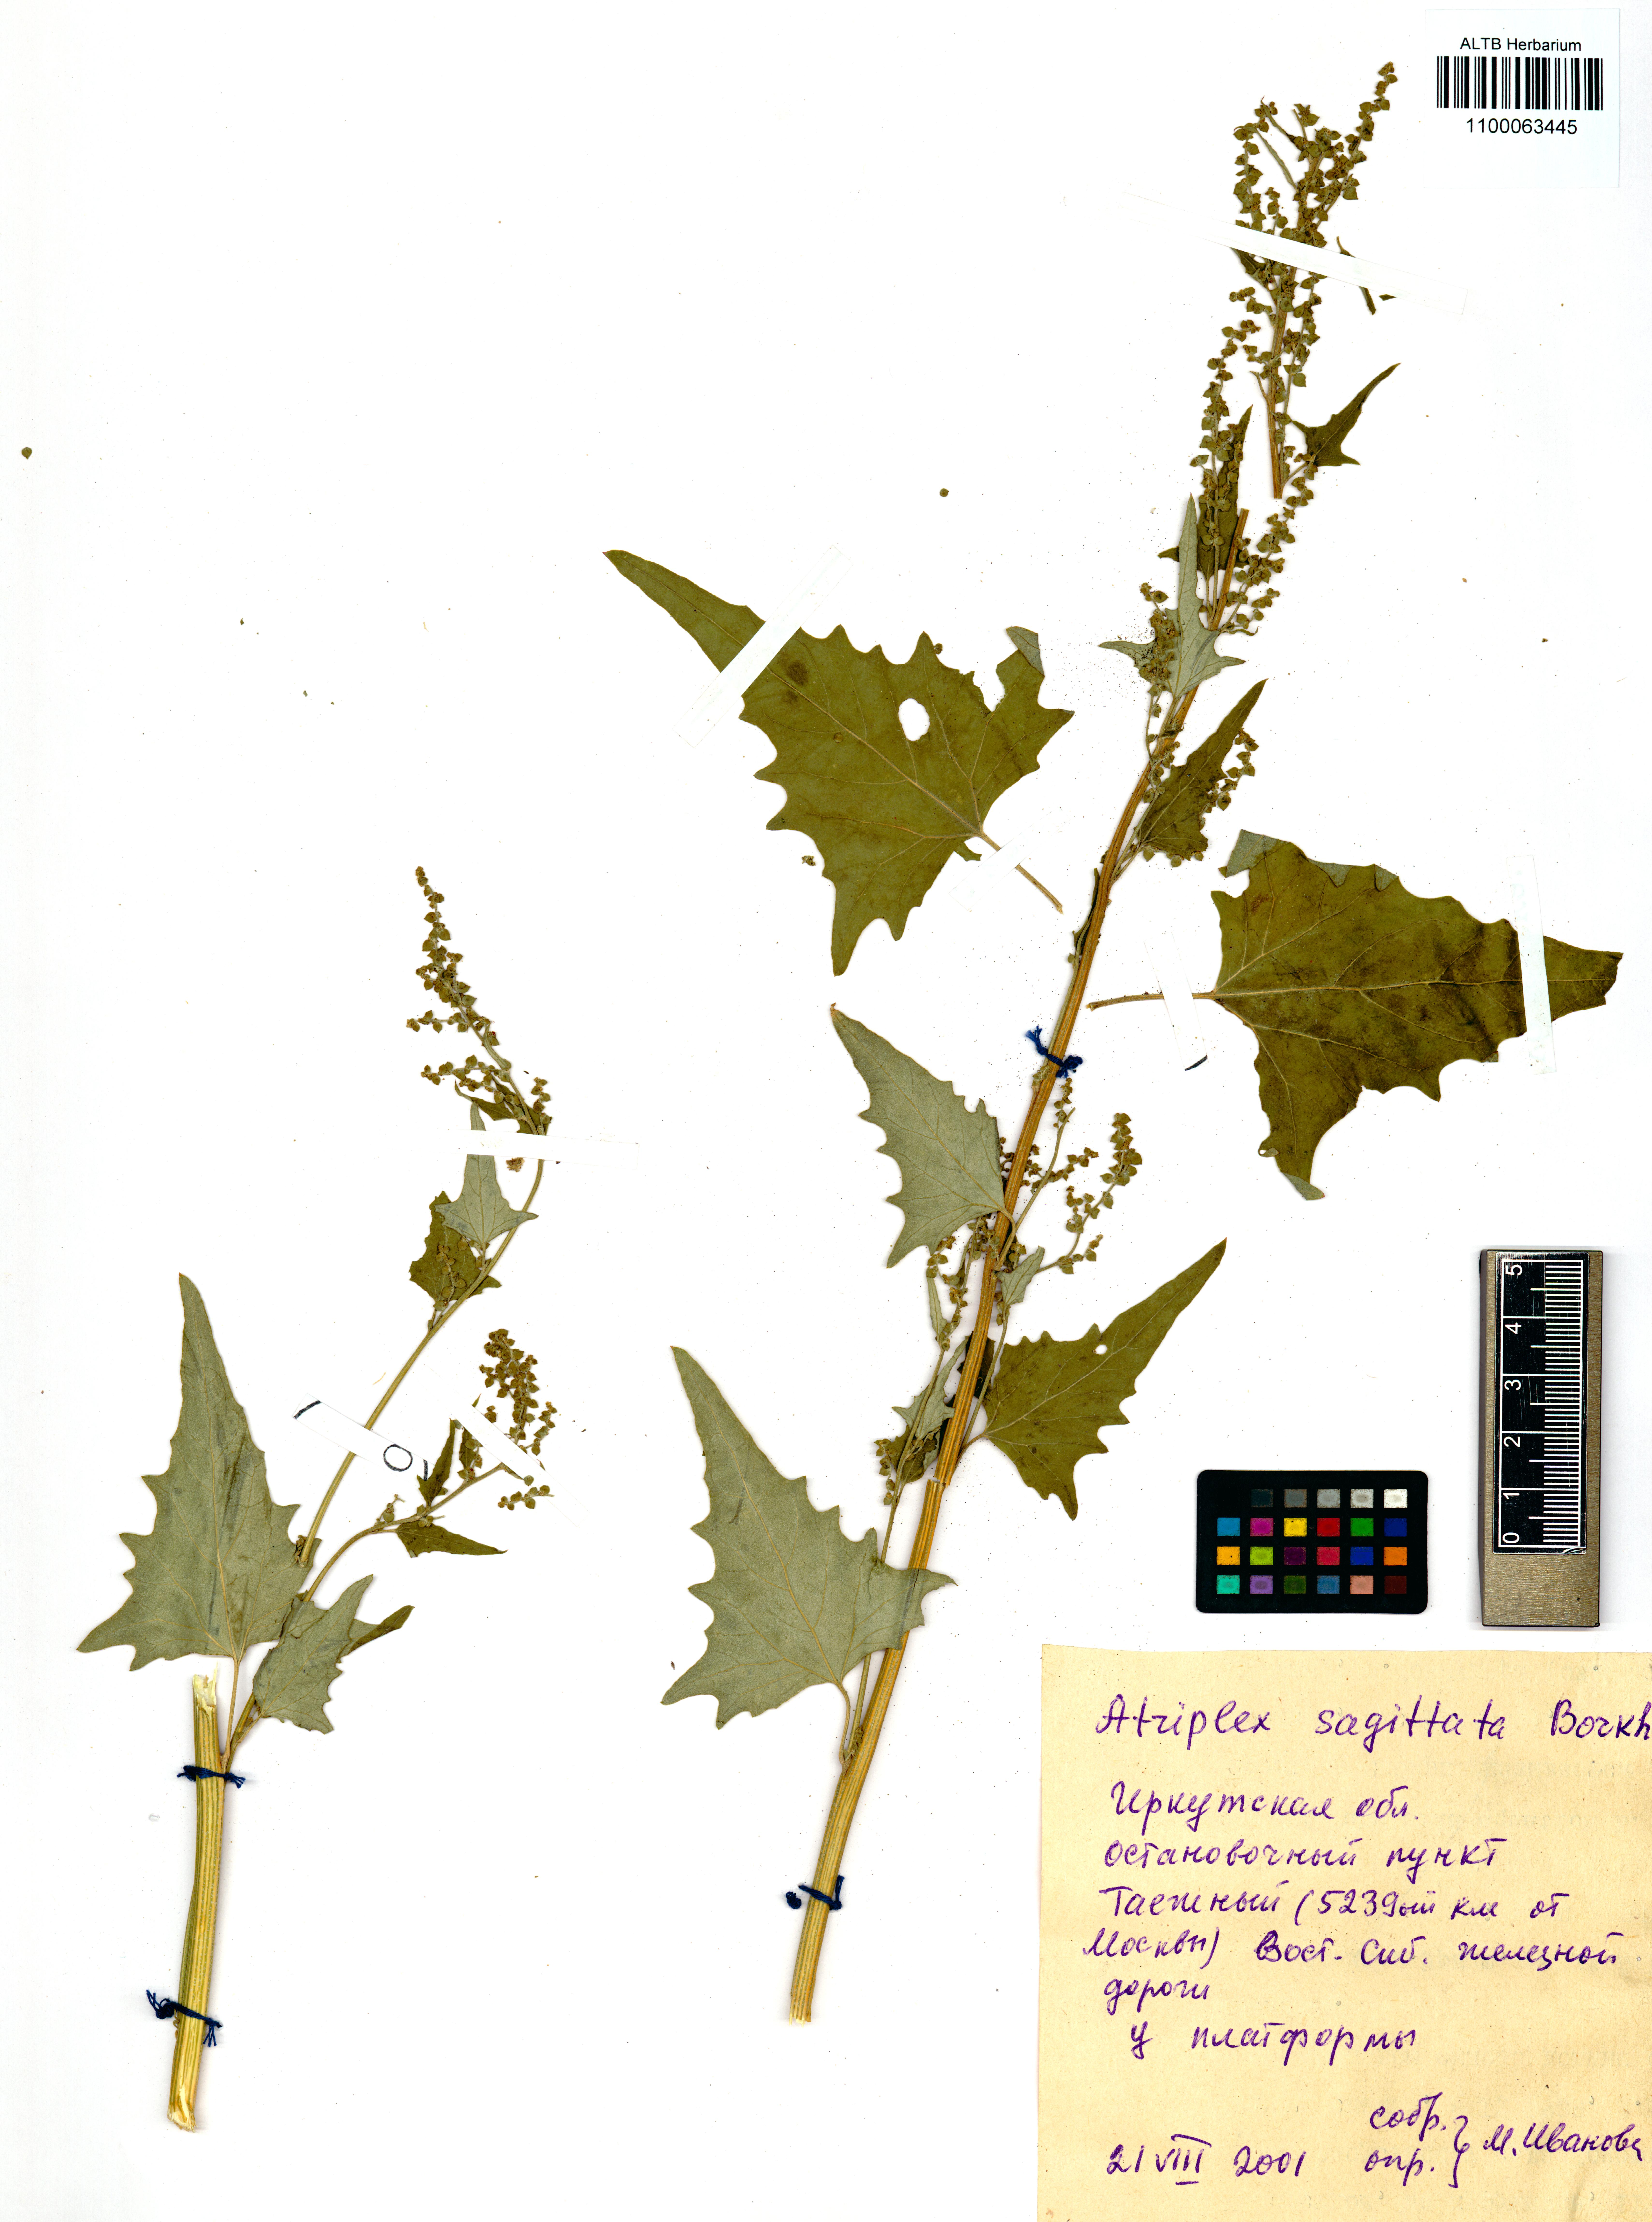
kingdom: Plantae
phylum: Tracheophyta
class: Magnoliopsida
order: Caryophyllales
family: Amaranthaceae
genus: Atriplex
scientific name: Atriplex sagittata
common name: Purple orache
